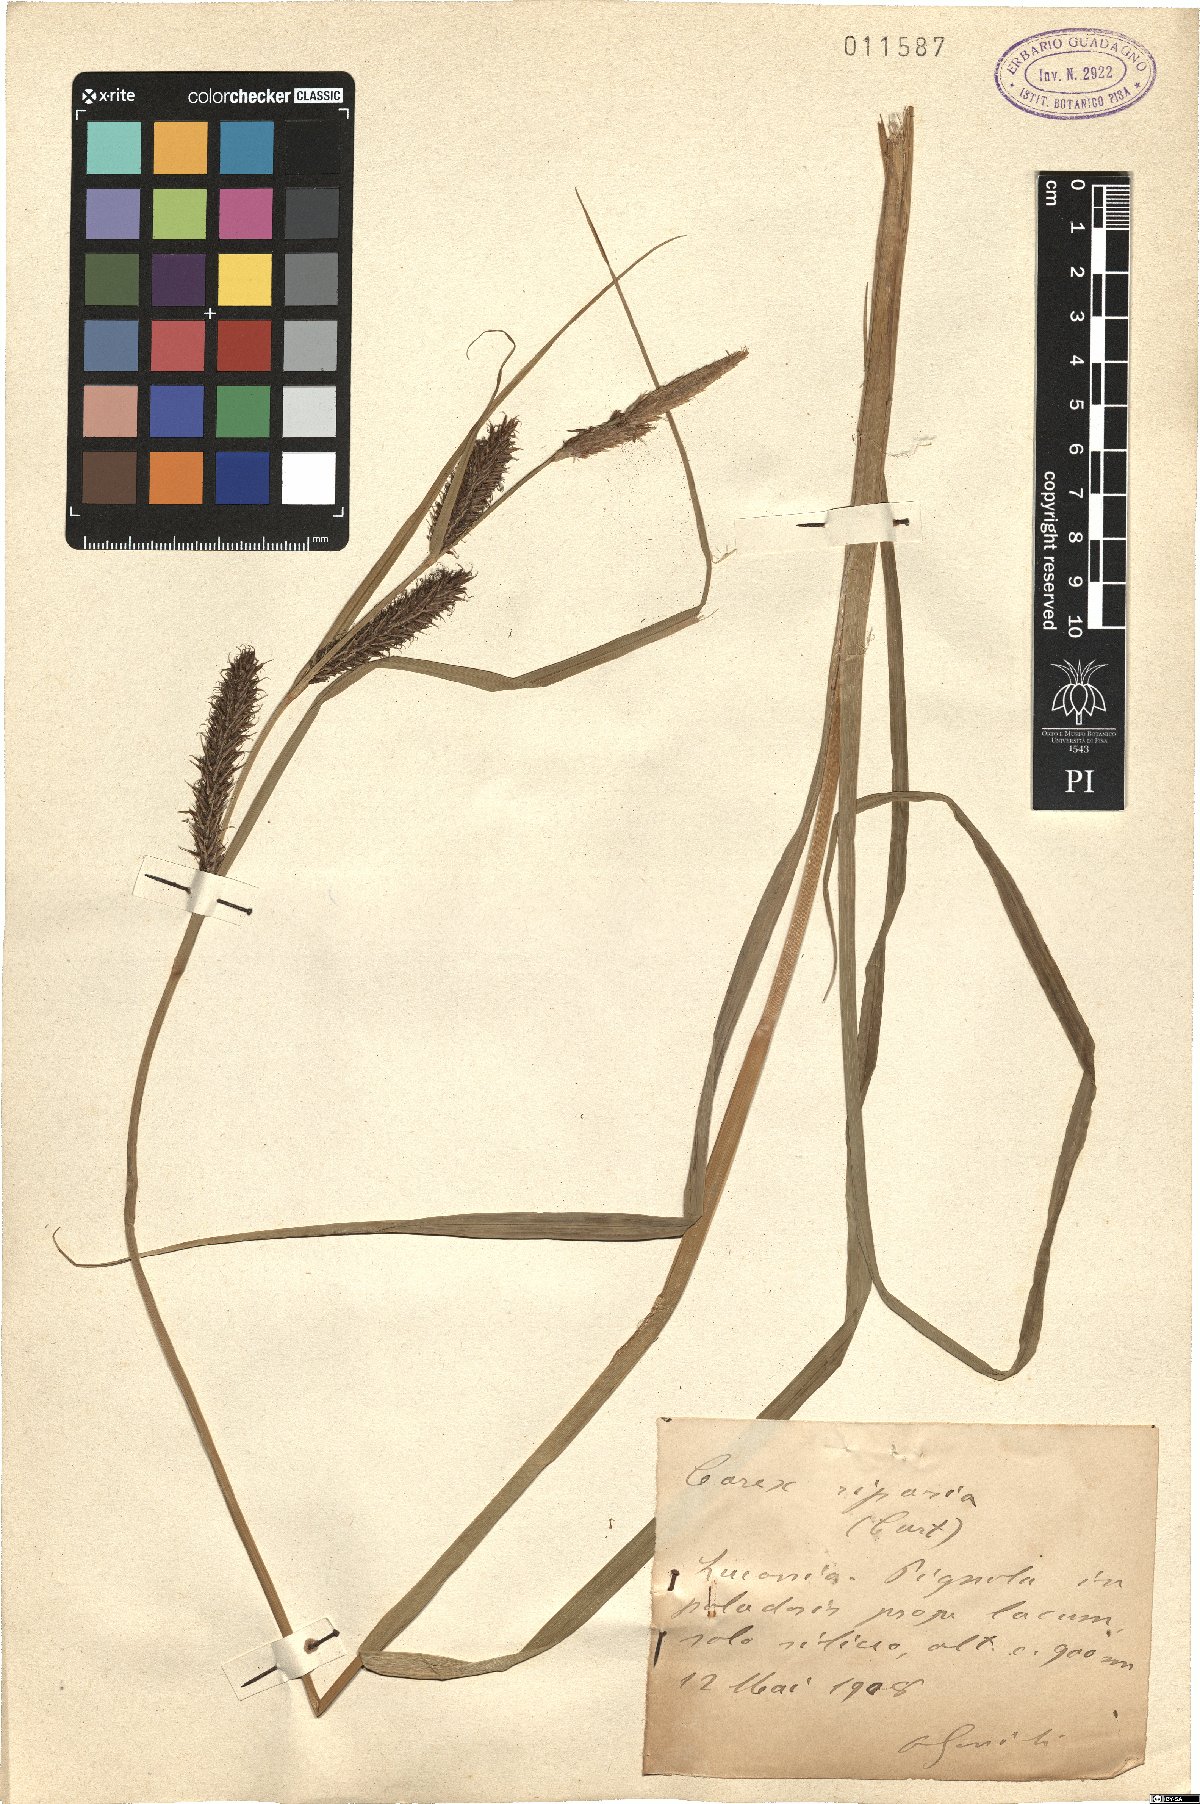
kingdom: Plantae
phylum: Tracheophyta
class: Liliopsida
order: Poales
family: Cyperaceae
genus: Carex
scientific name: Carex riparia
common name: Greater pond-sedge
